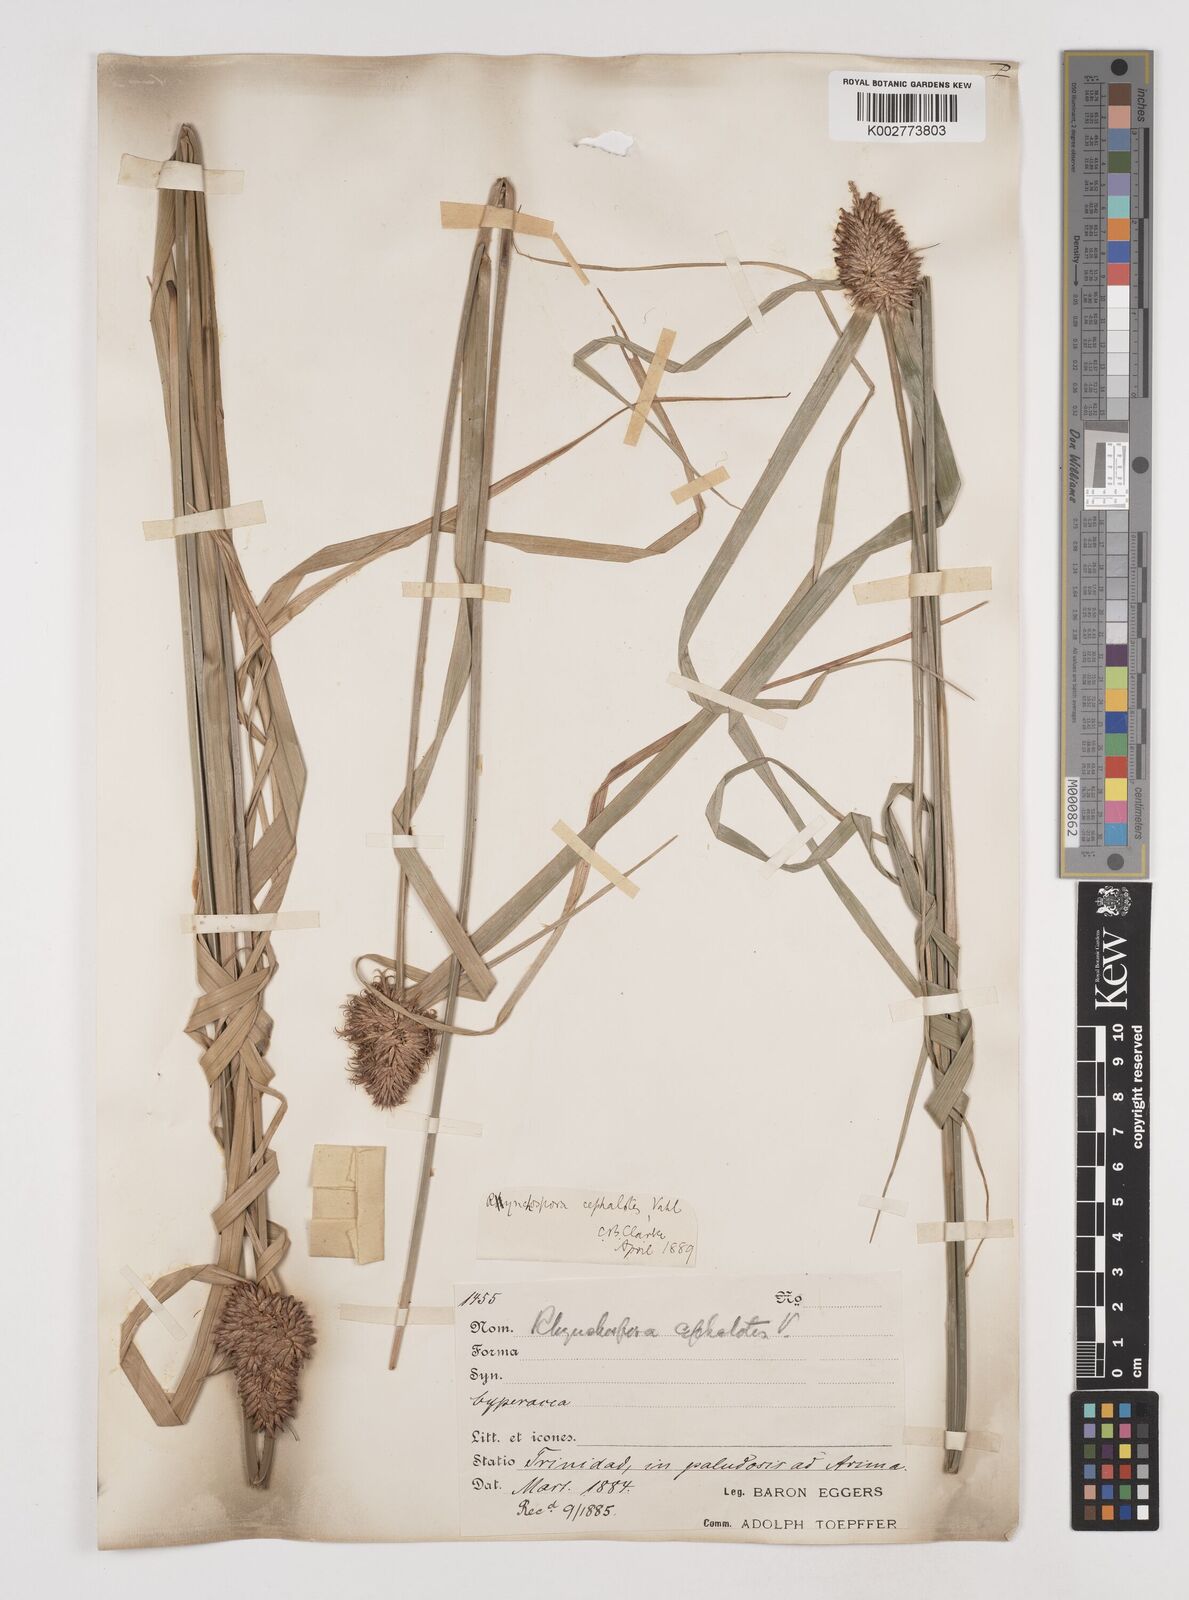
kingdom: Plantae
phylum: Tracheophyta
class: Liliopsida
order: Poales
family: Cyperaceae
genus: Rhynchospora
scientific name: Rhynchospora cephalotes
